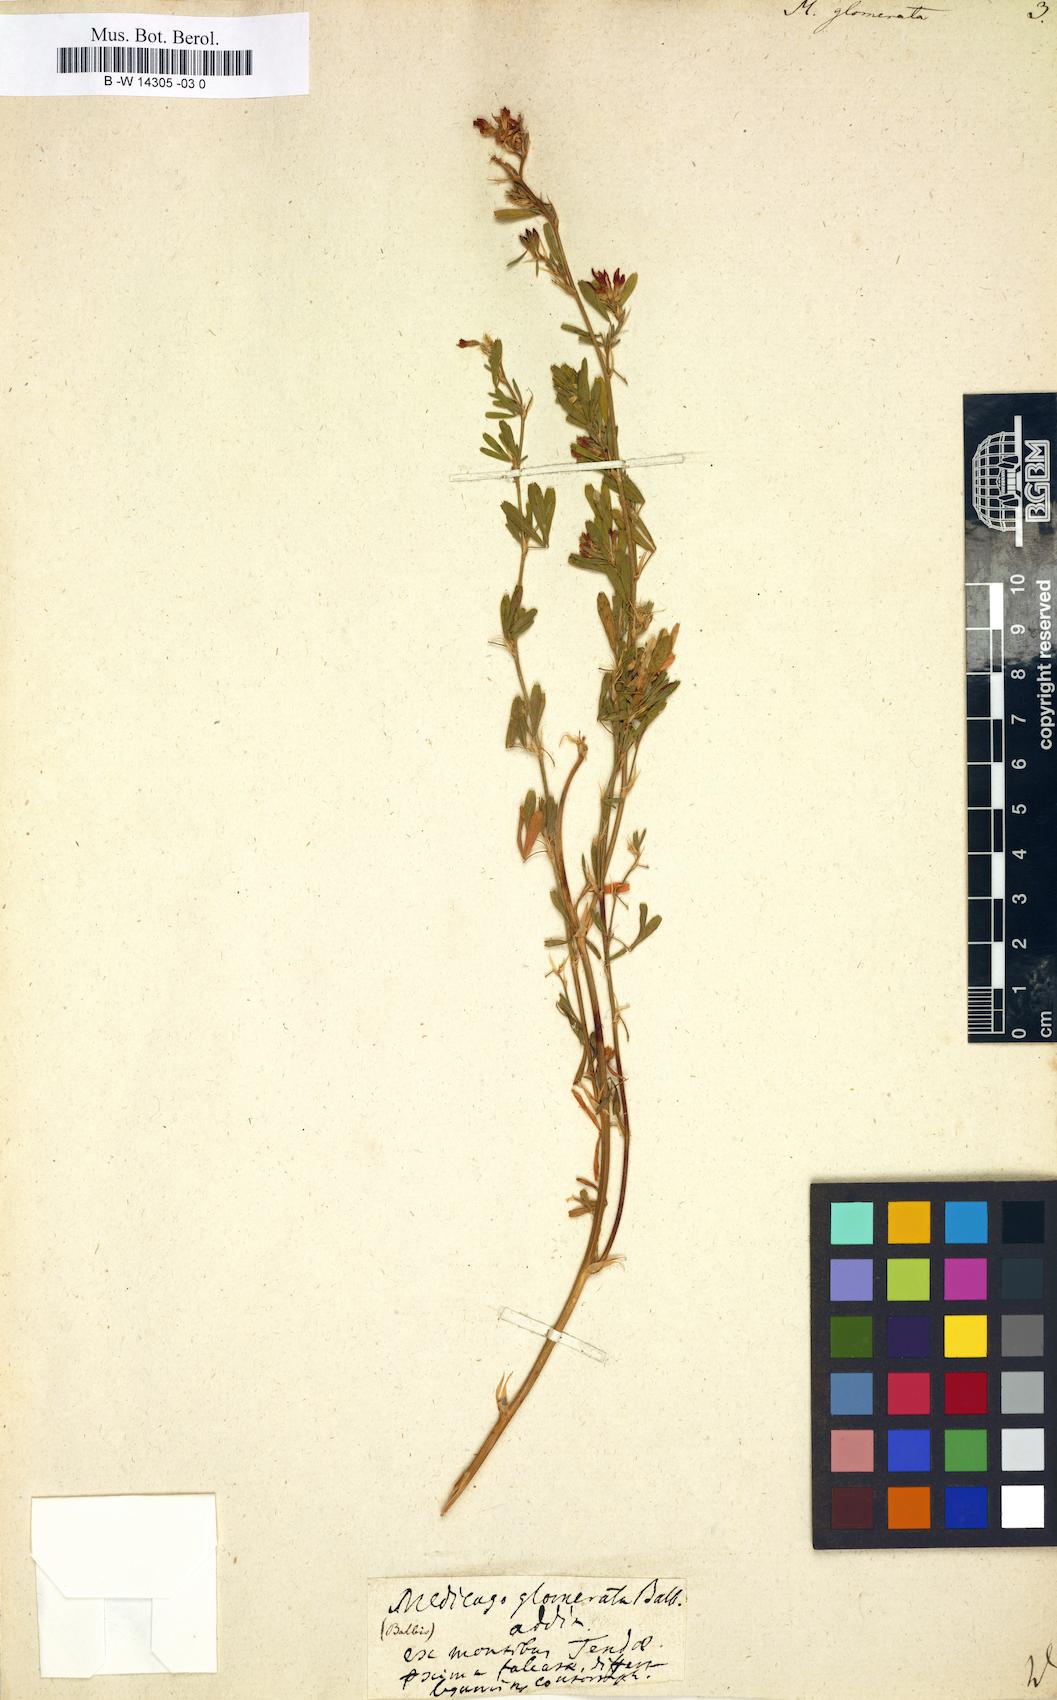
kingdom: Plantae
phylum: Tracheophyta
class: Magnoliopsida
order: Fabales
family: Fabaceae
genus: Medicago
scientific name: Medicago sativa
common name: Alfalfa
